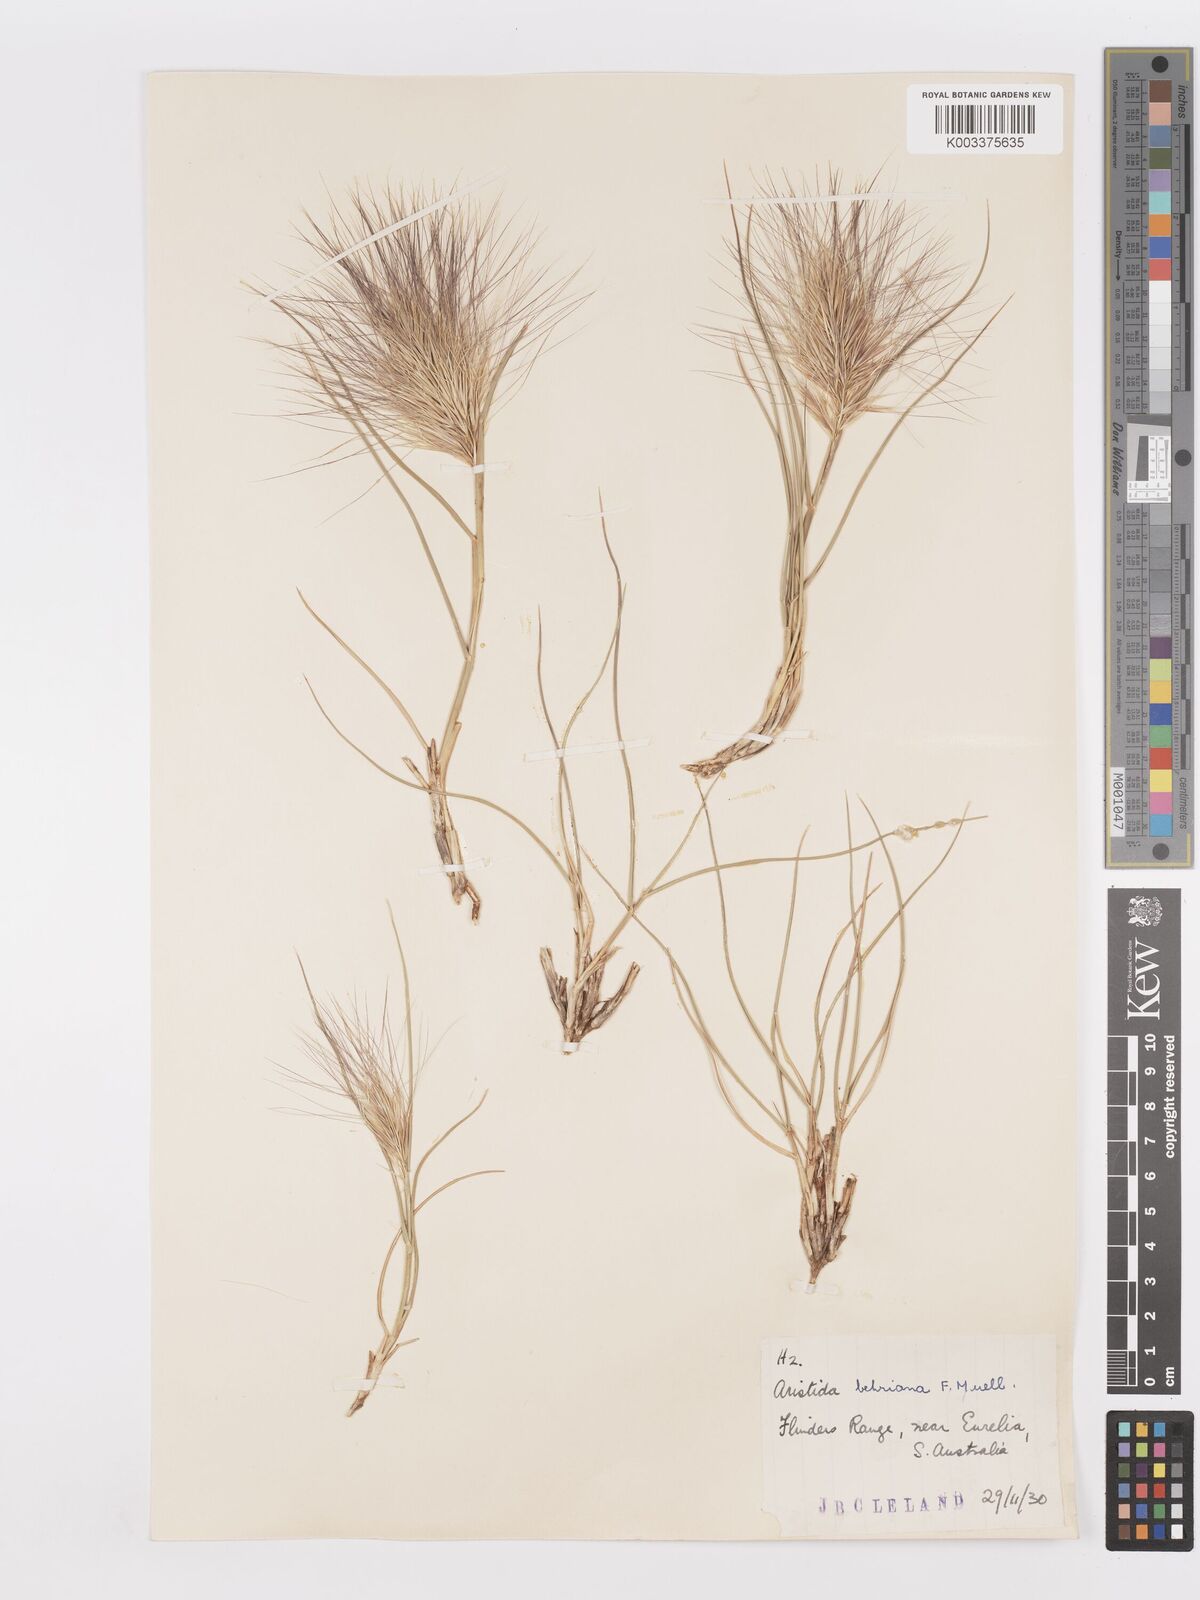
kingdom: Plantae
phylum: Tracheophyta
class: Liliopsida
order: Poales
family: Poaceae
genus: Aristida
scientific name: Aristida behriana
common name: Long-awn wire grass
